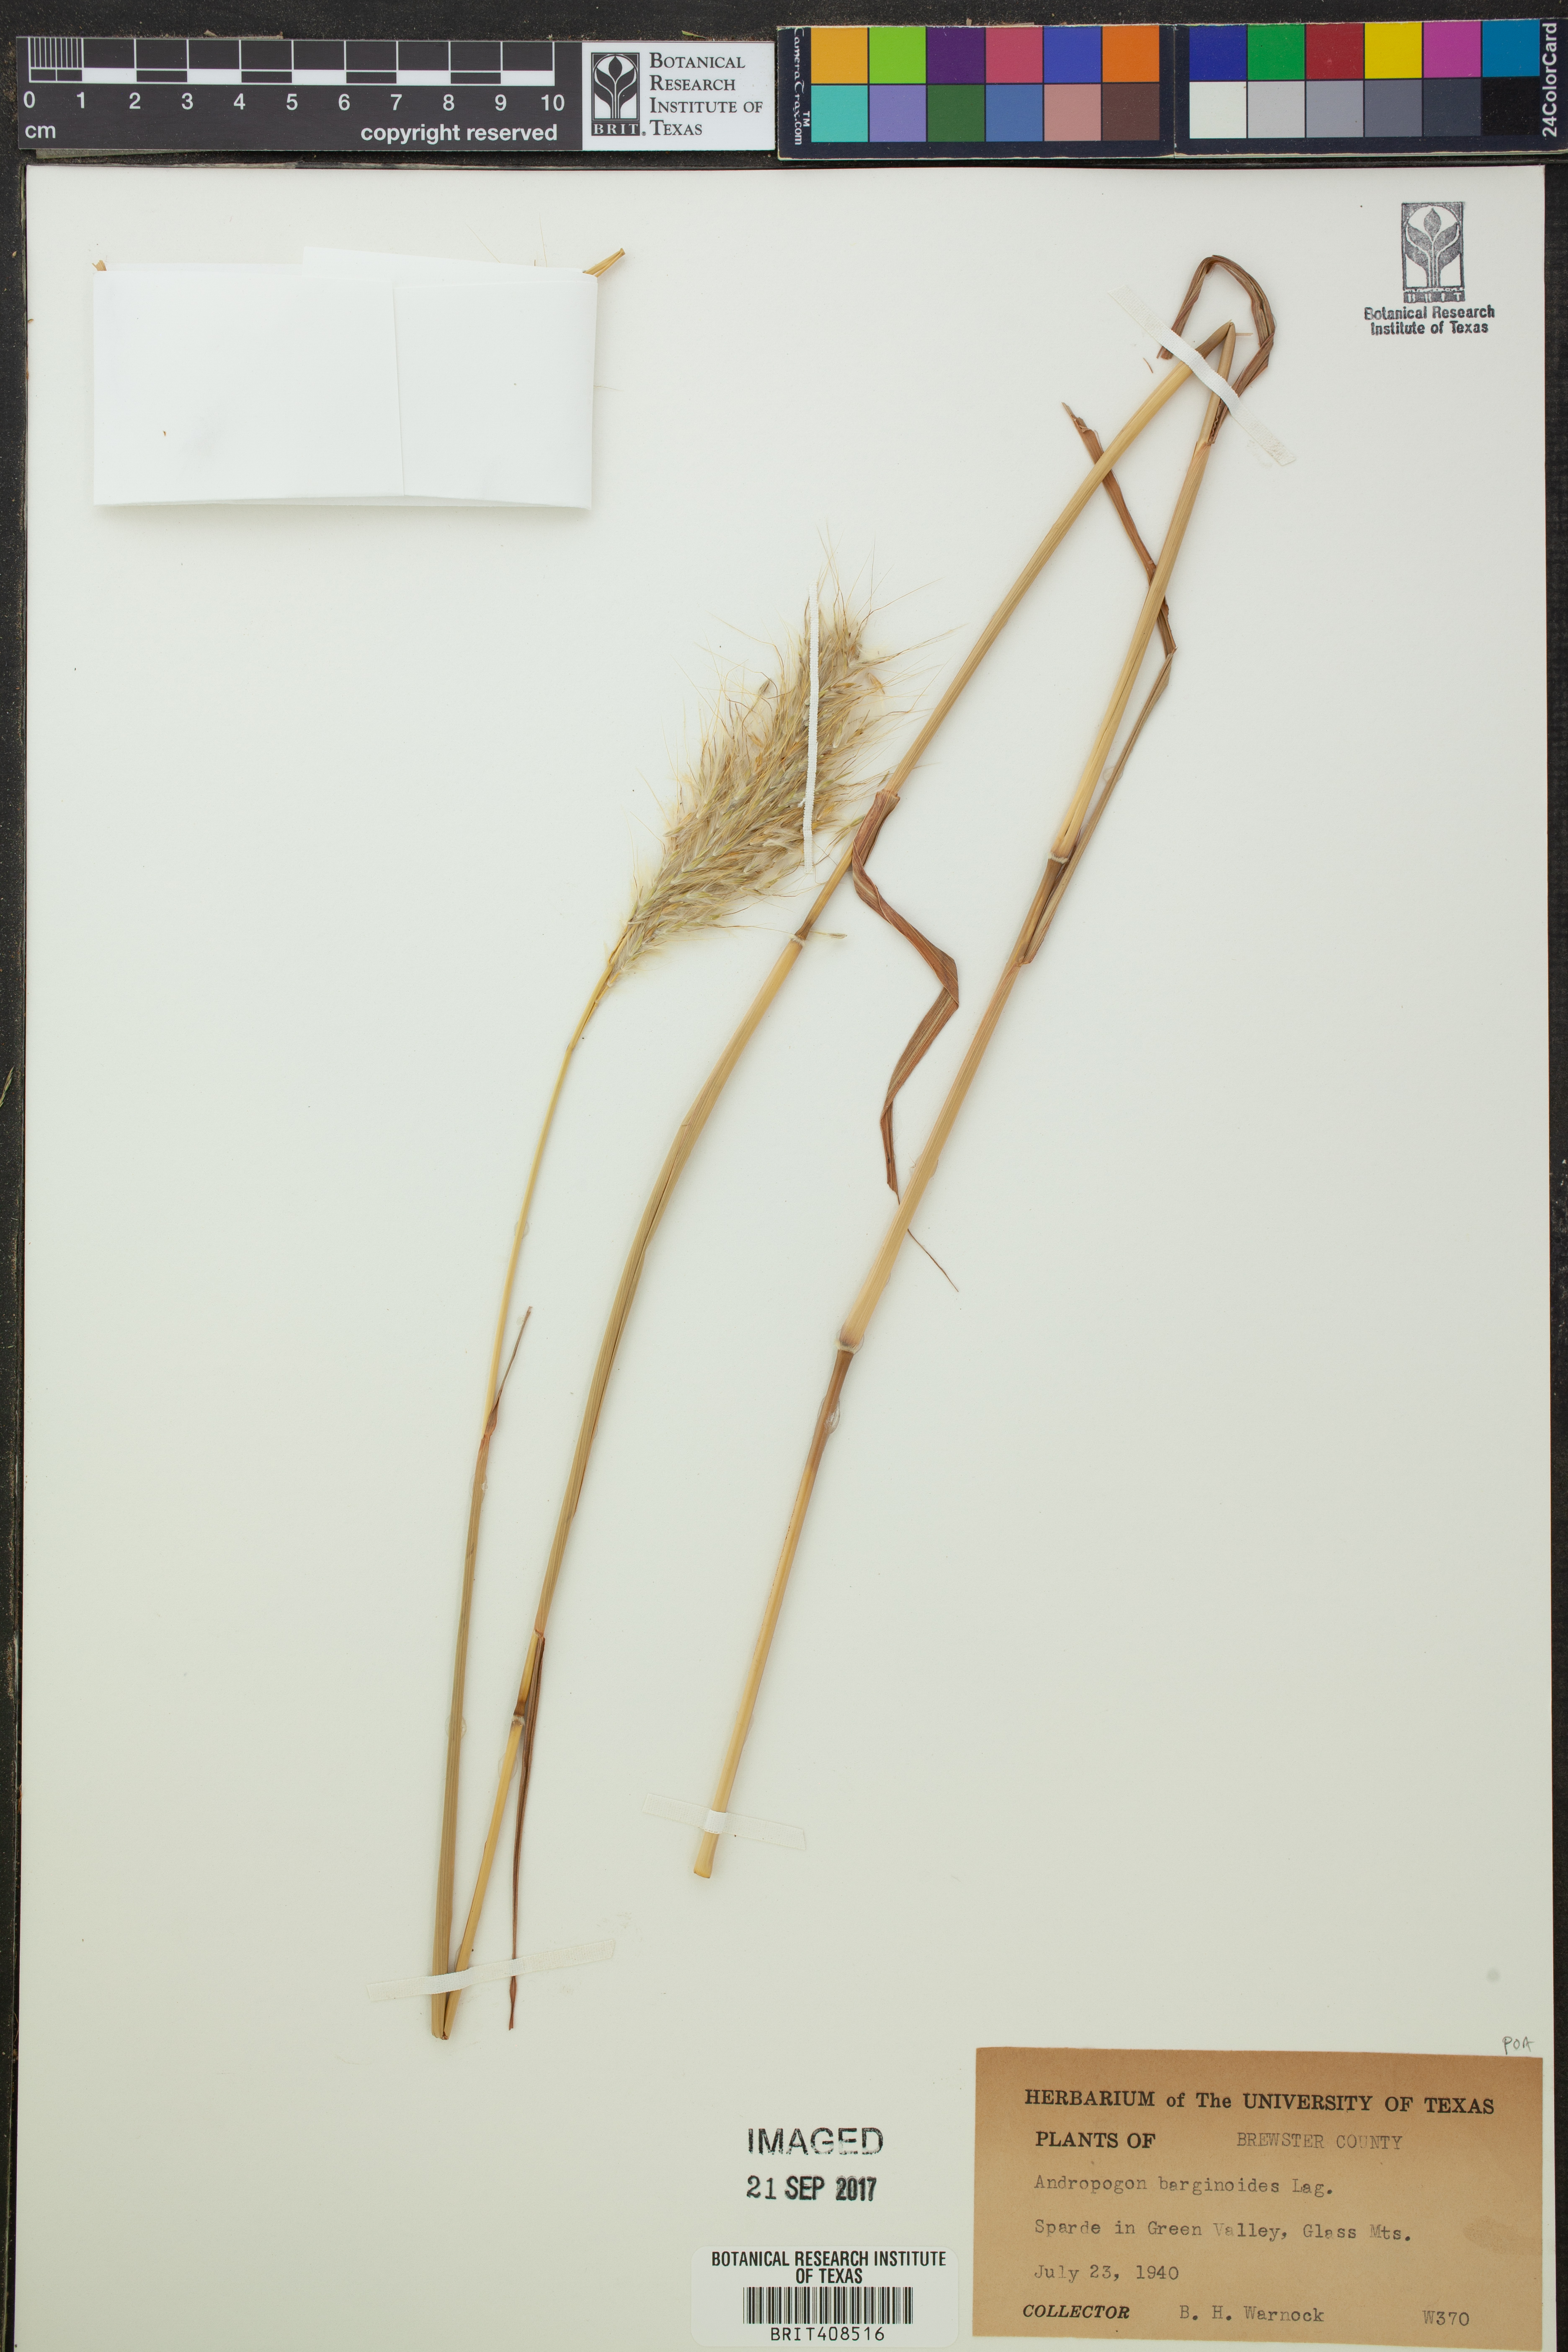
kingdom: Plantae
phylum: Tracheophyta
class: Liliopsida
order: Poales
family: Poaceae
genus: Andropogon
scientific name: Andropogon
